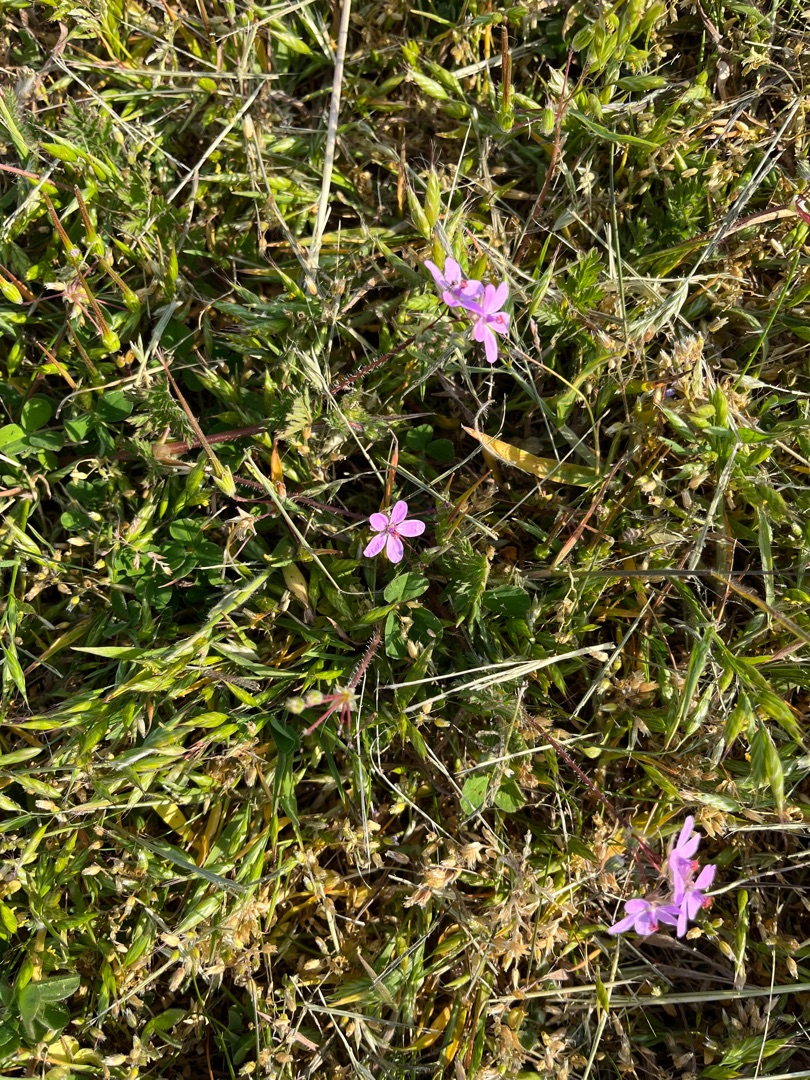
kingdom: Plantae
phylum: Tracheophyta
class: Magnoliopsida
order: Geraniales
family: Geraniaceae
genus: Erodium
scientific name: Erodium cicutarium
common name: Hejrenæb
